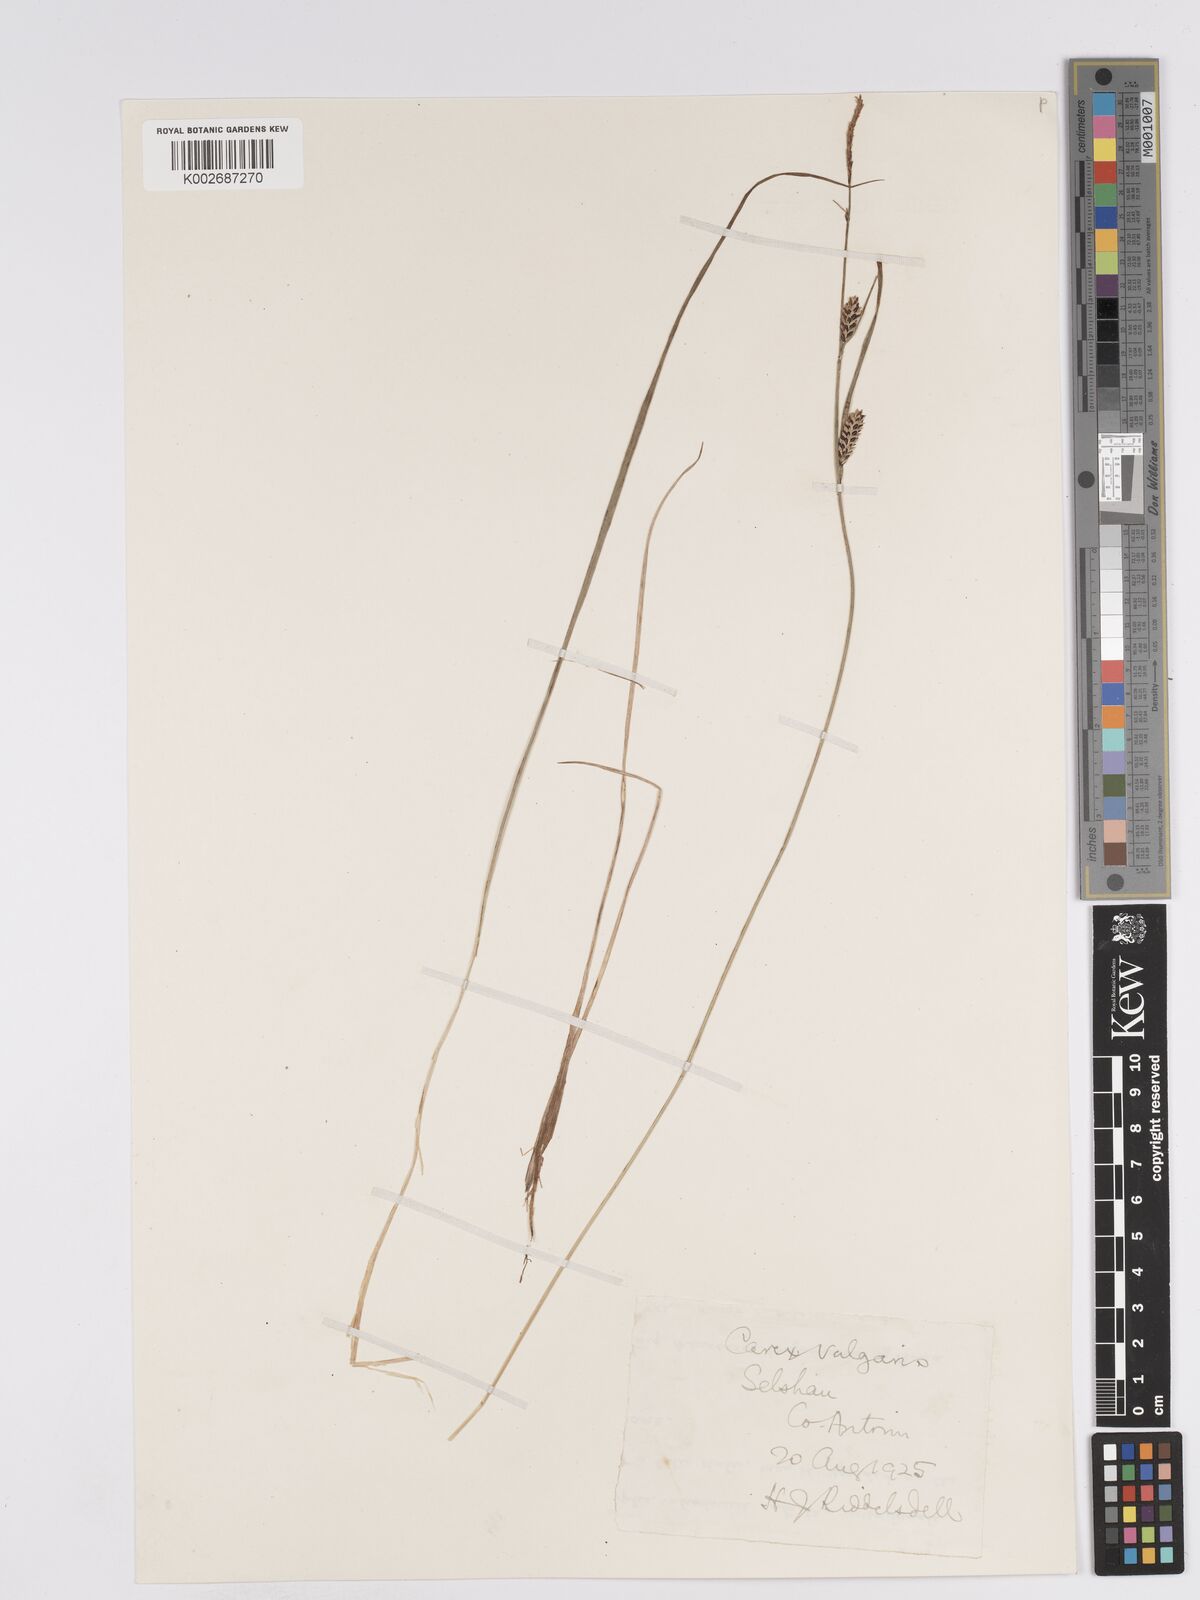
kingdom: Plantae
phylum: Tracheophyta
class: Liliopsida
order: Poales
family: Cyperaceae
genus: Carex
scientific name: Carex nigra
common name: Common sedge
